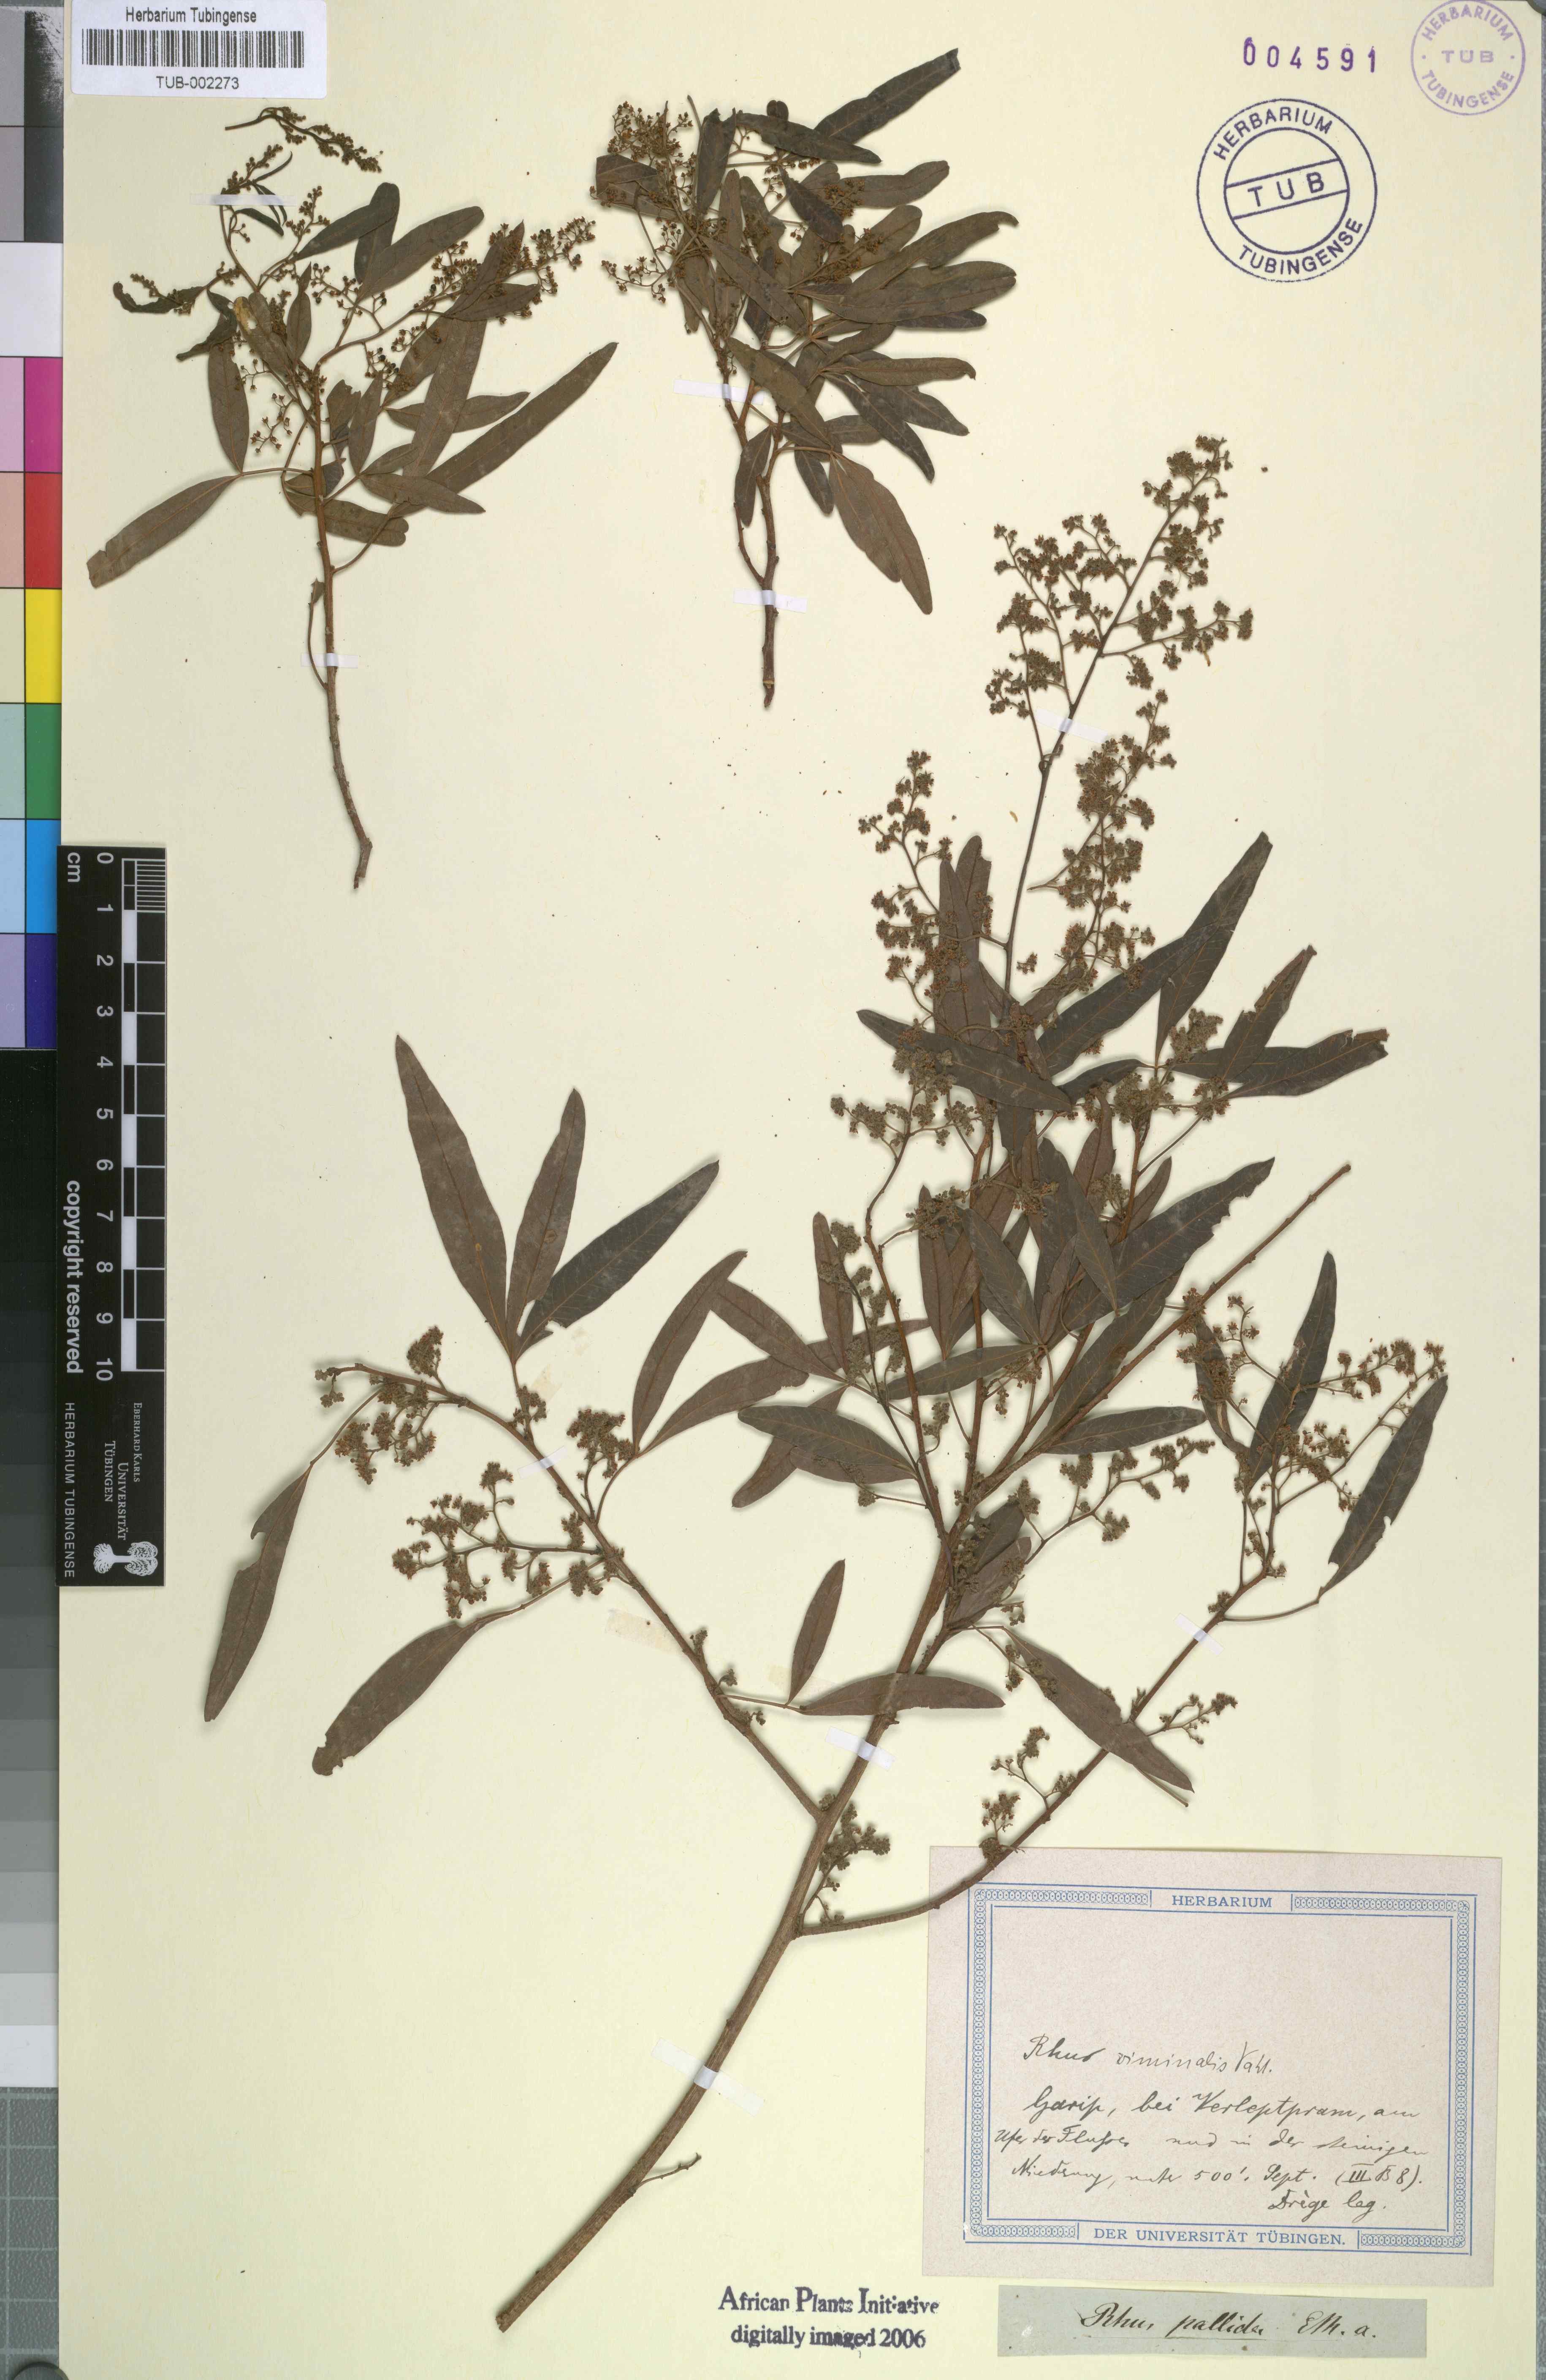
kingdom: Plantae
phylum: Tracheophyta
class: Magnoliopsida
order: Sapindales
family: Anacardiaceae
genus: Searsia
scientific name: Searsia gerrardii
